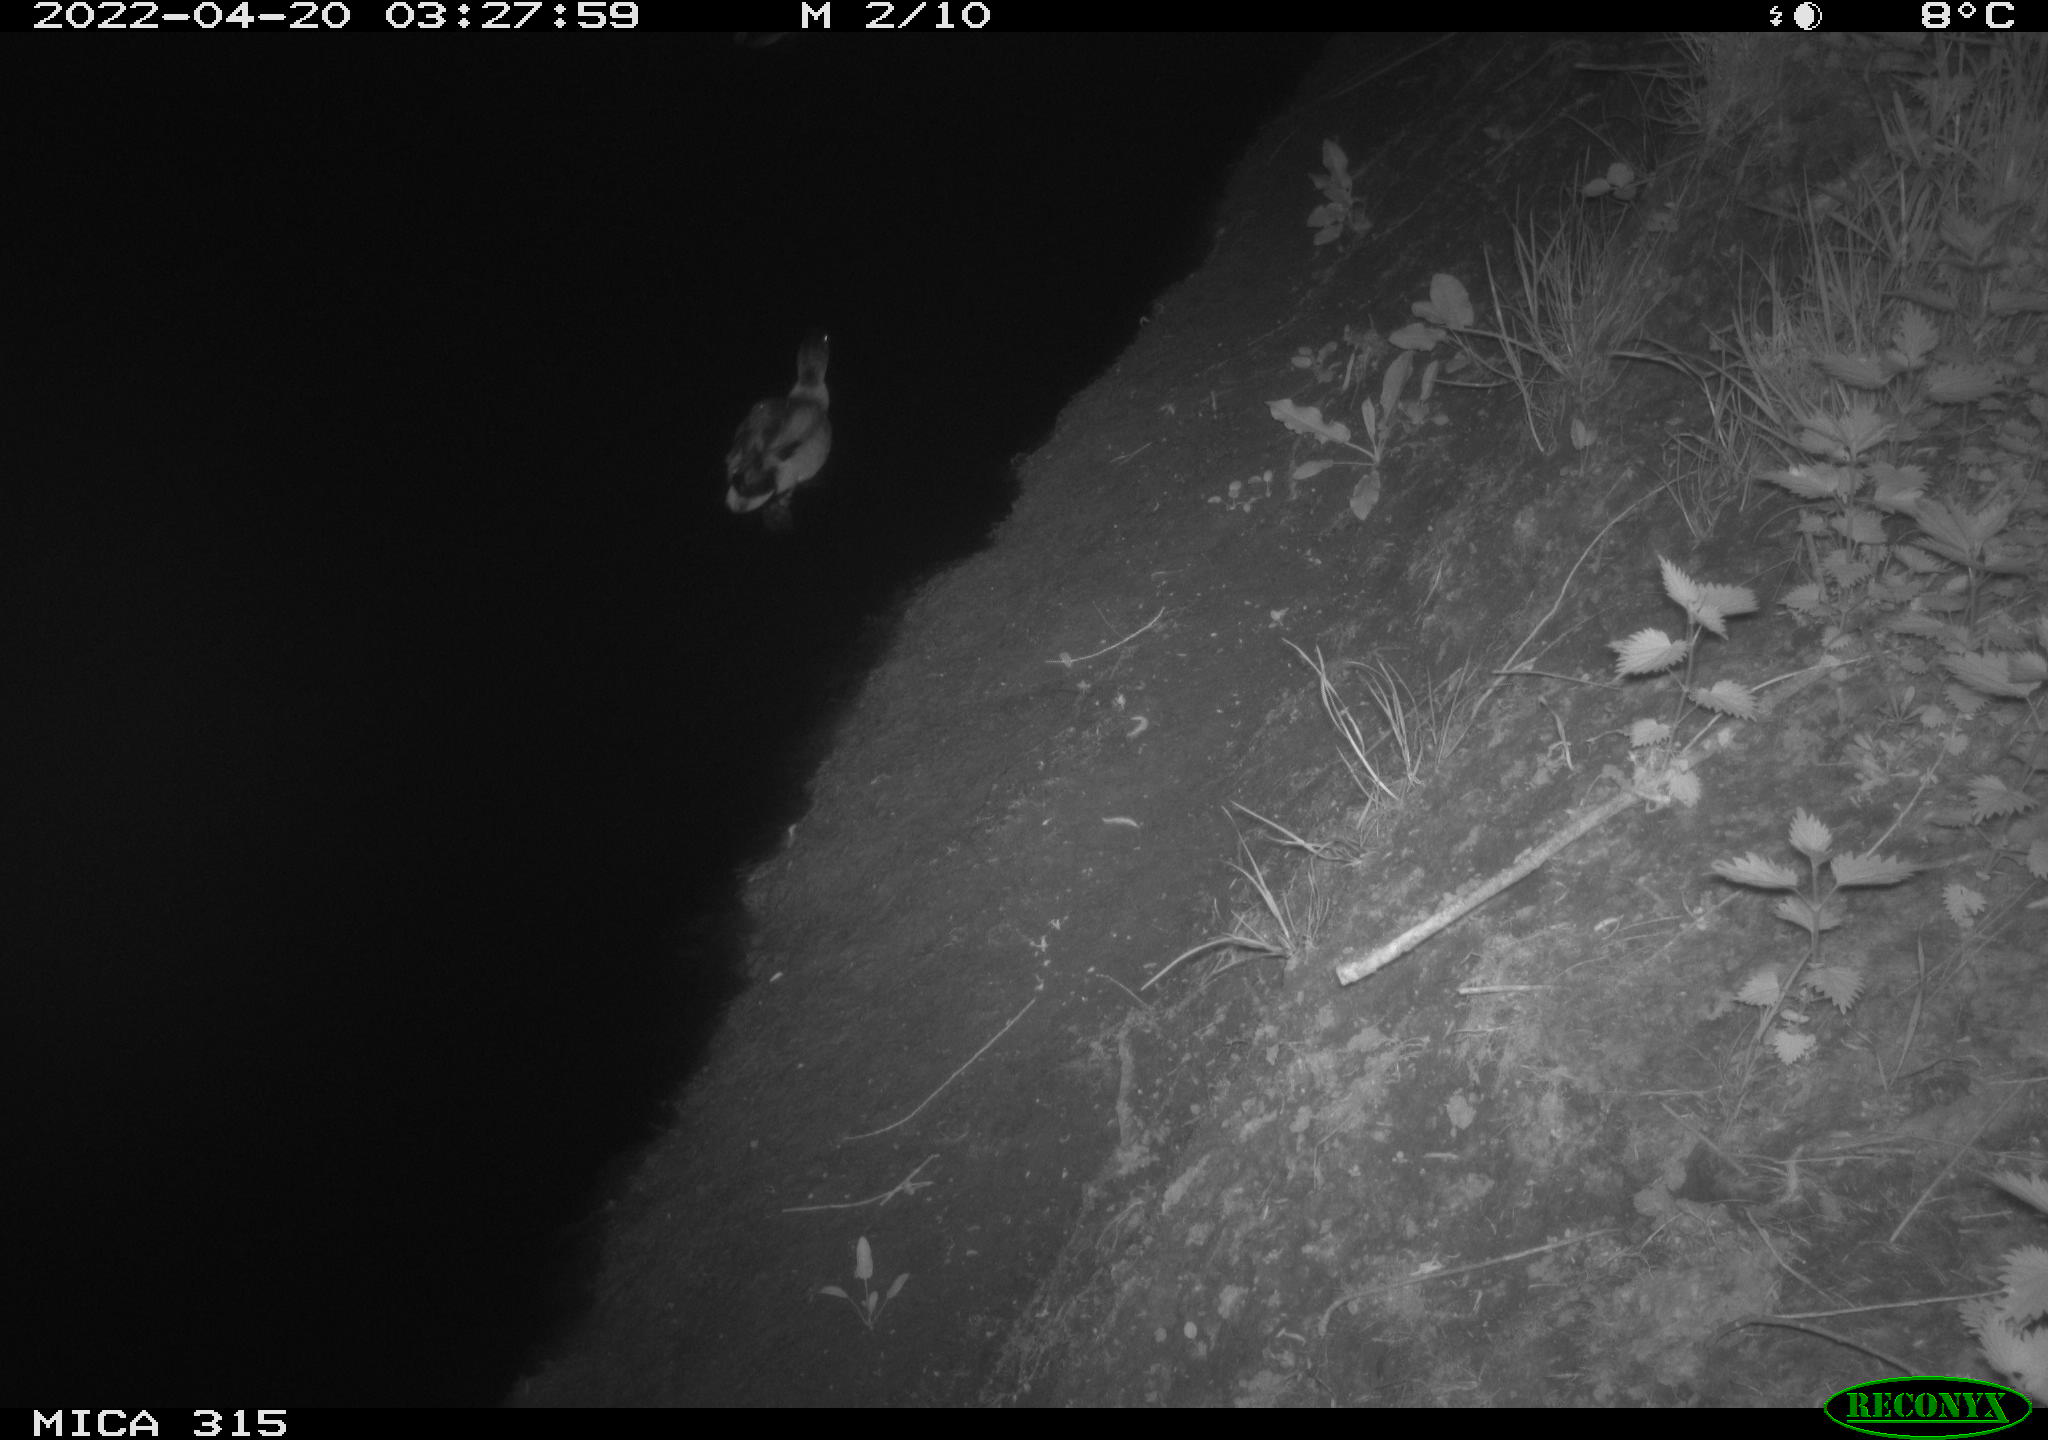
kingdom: Animalia
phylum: Chordata
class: Aves
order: Anseriformes
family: Anatidae
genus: Anas
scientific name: Anas platyrhynchos
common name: Mallard
